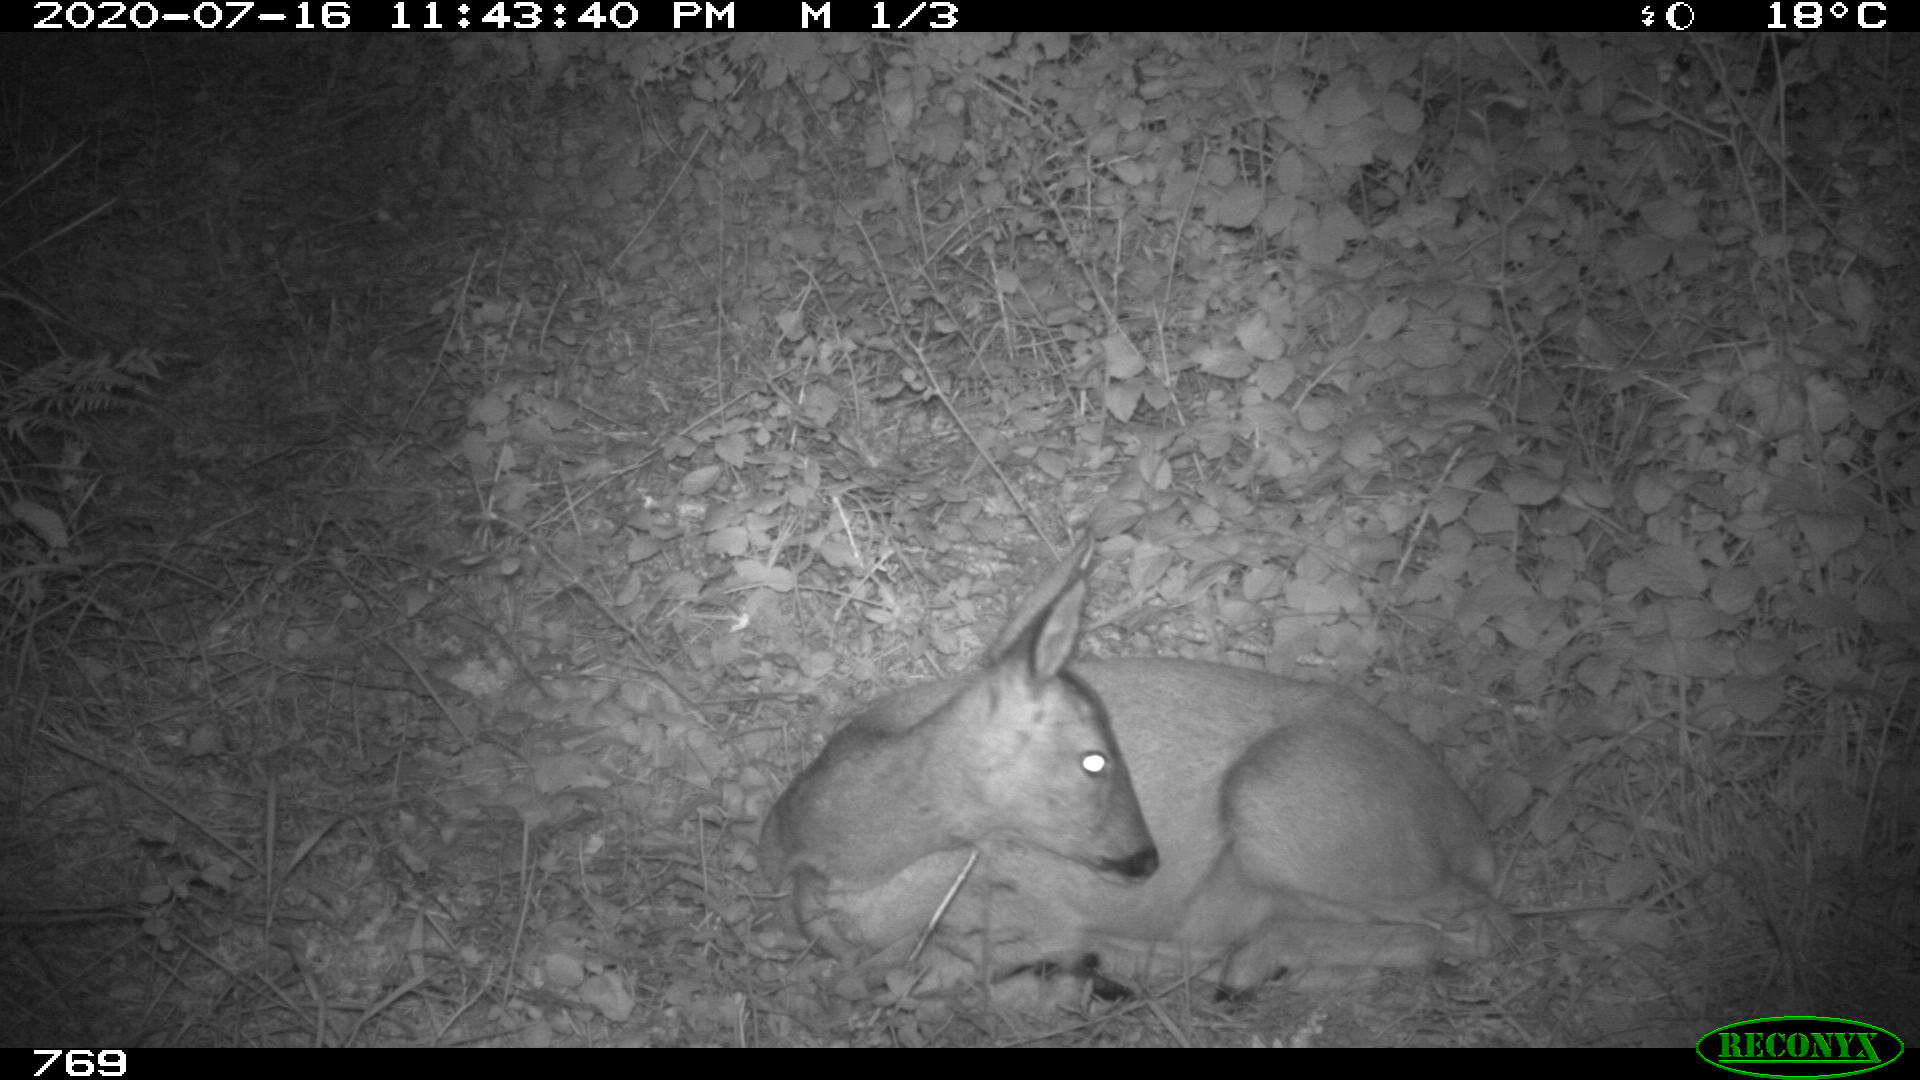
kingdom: Animalia
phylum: Chordata
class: Mammalia
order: Artiodactyla
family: Cervidae
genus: Capreolus
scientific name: Capreolus capreolus
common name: Western roe deer
